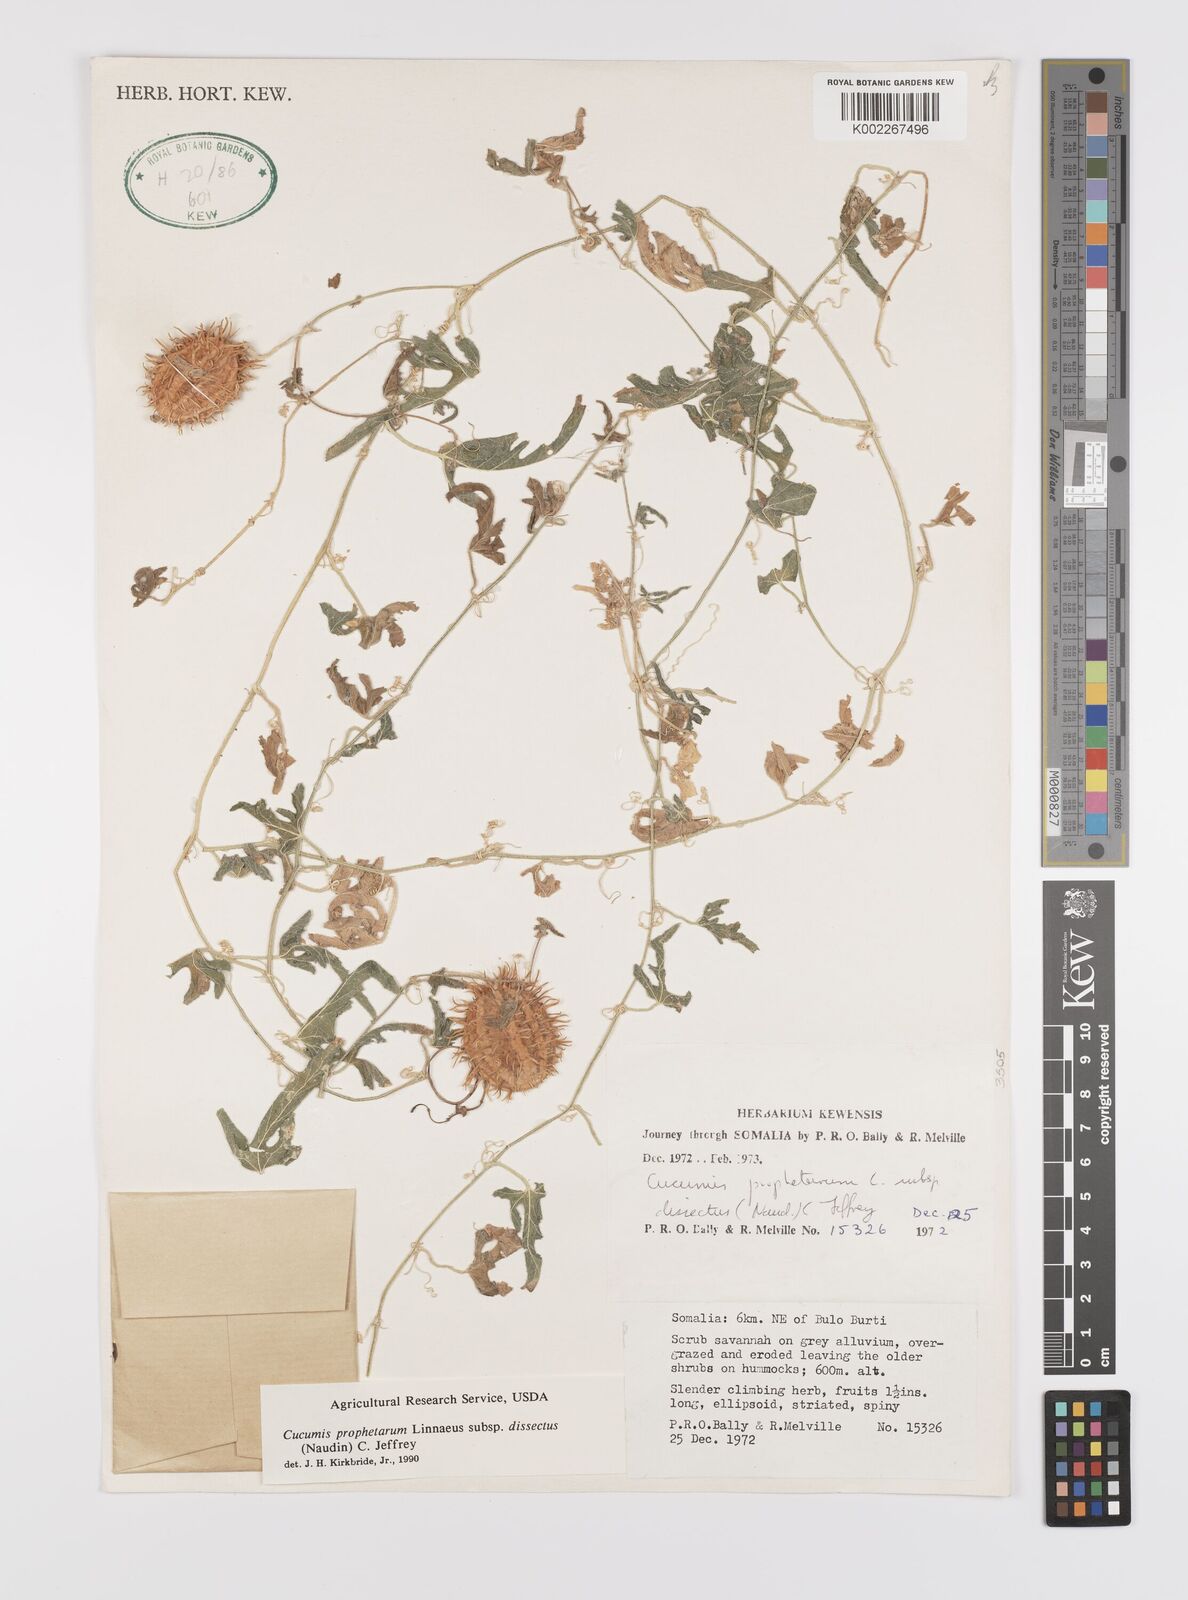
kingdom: Plantae
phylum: Tracheophyta
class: Magnoliopsida
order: Cucurbitales
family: Cucurbitaceae
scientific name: Cucurbitaceae
